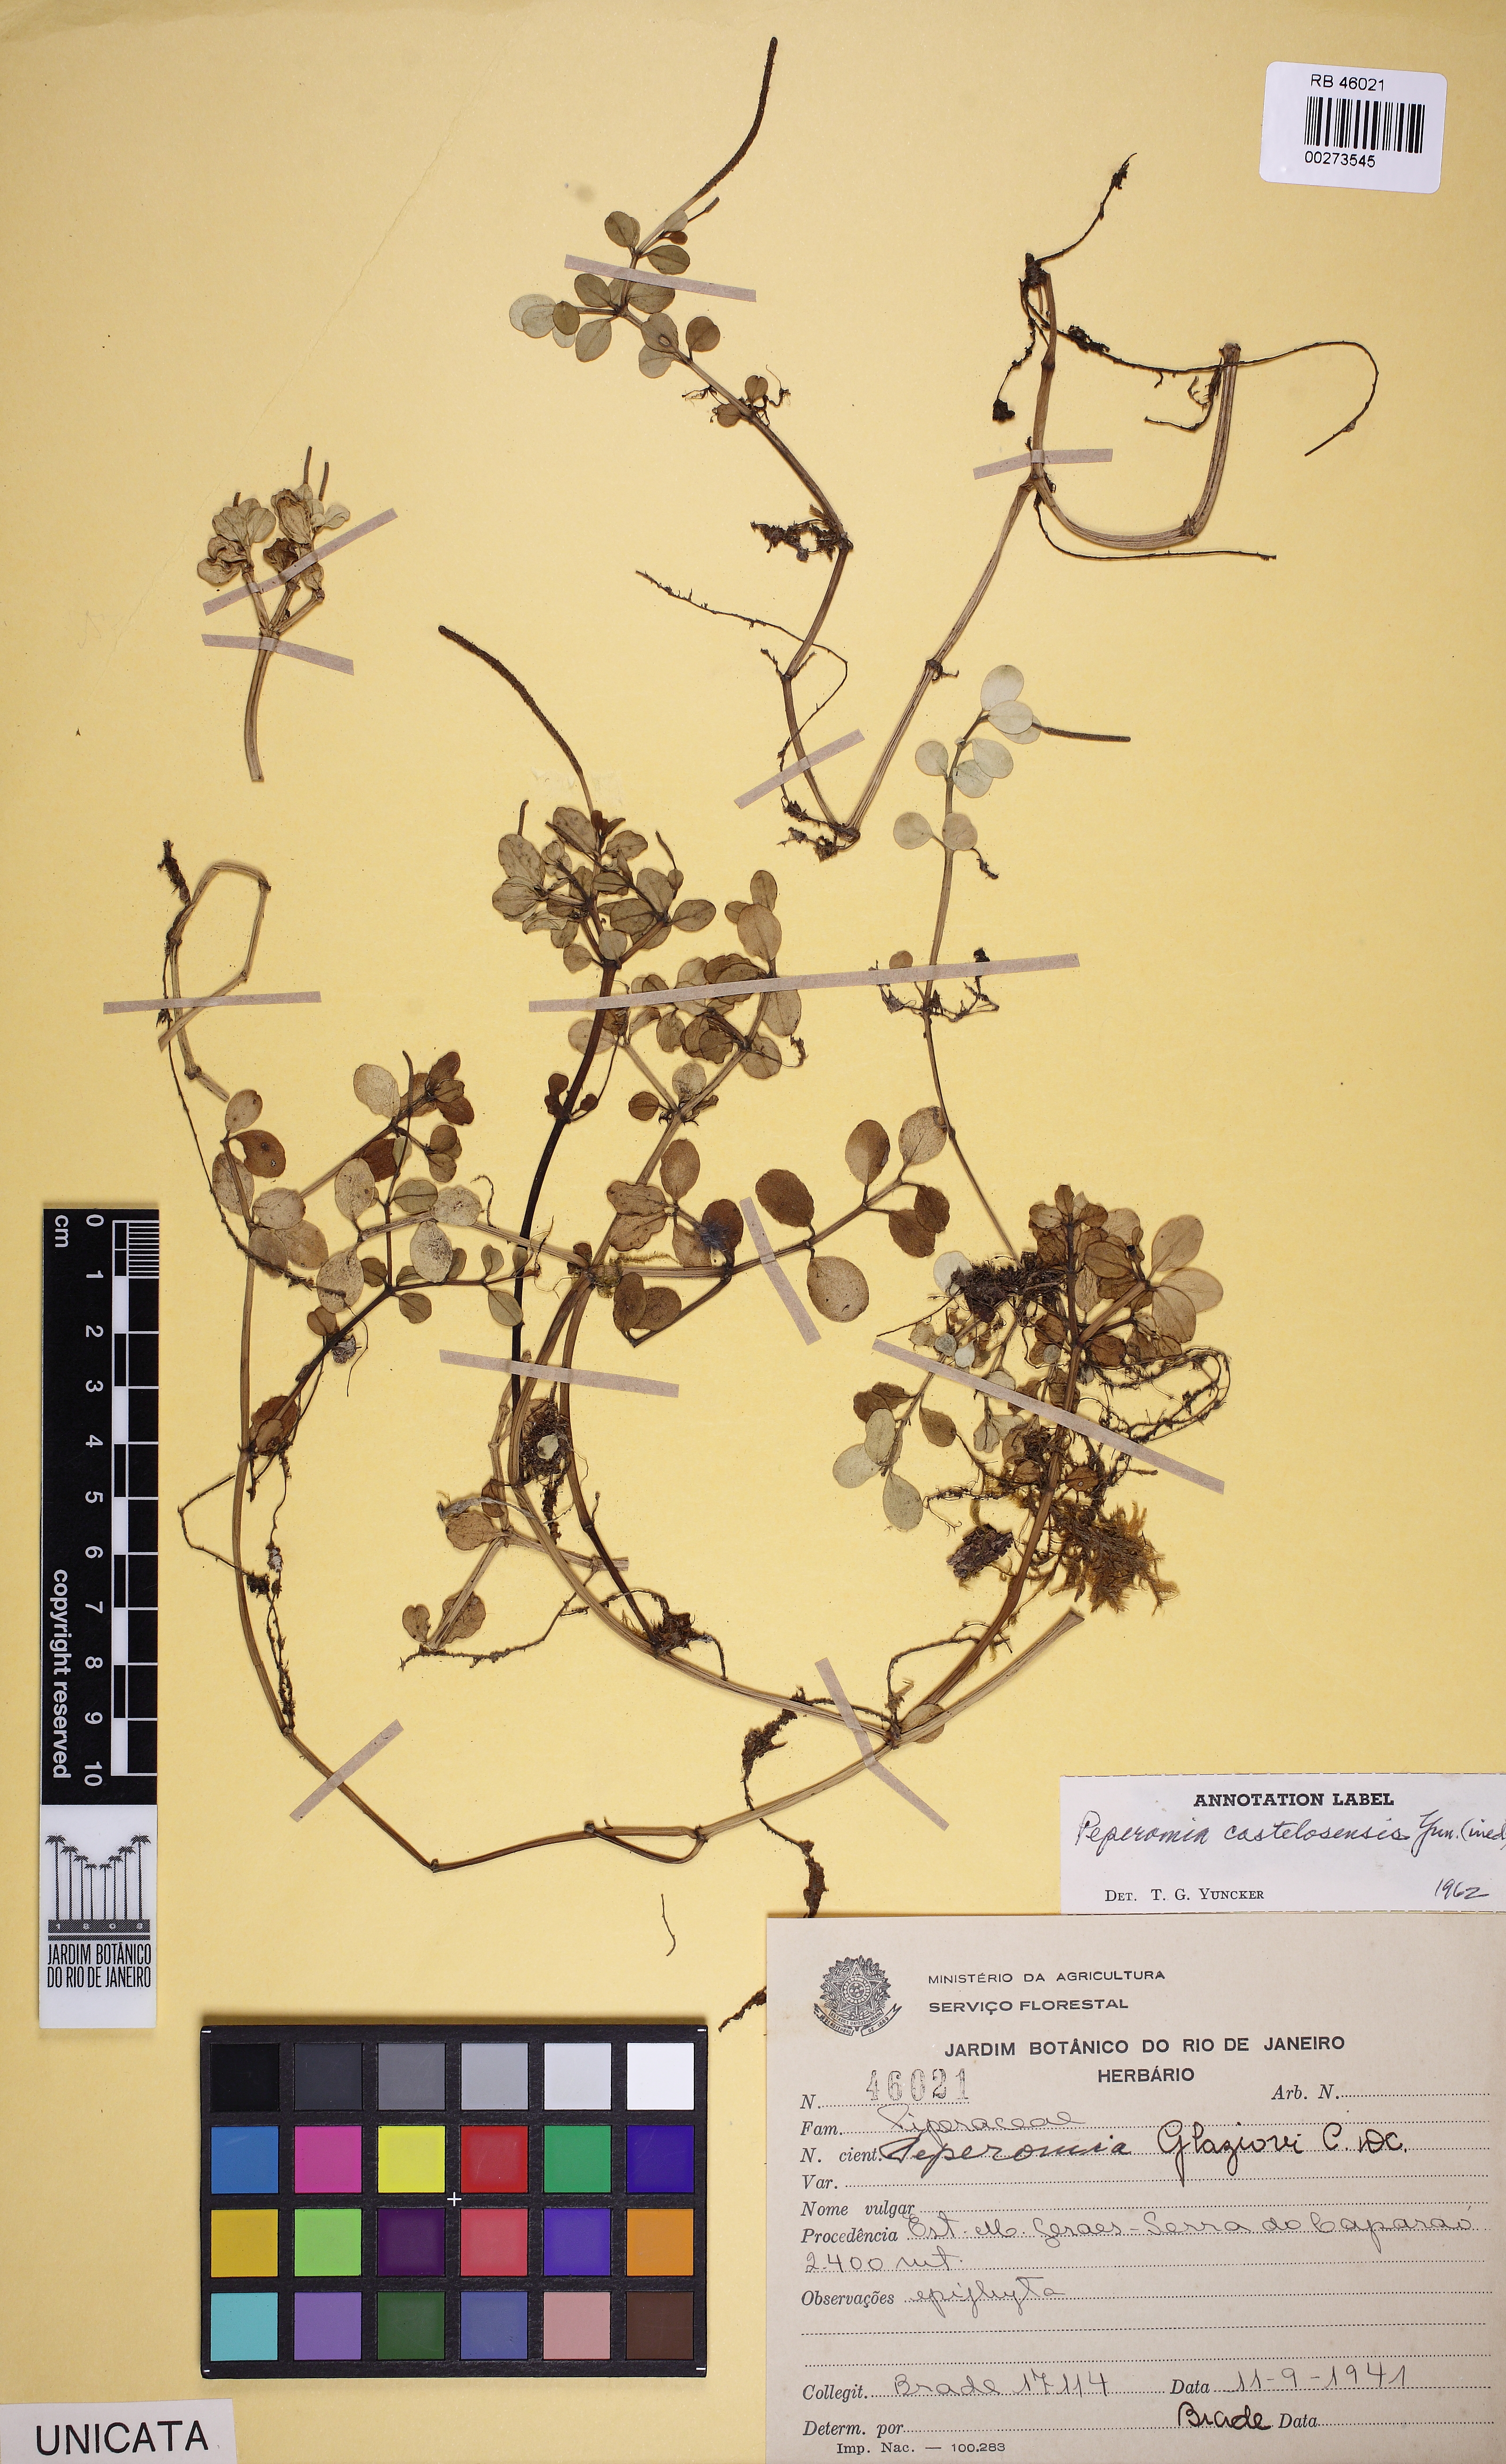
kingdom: Plantae
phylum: Tracheophyta
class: Magnoliopsida
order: Piperales
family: Piperaceae
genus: Peperomia
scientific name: Peperomia castelosensis
